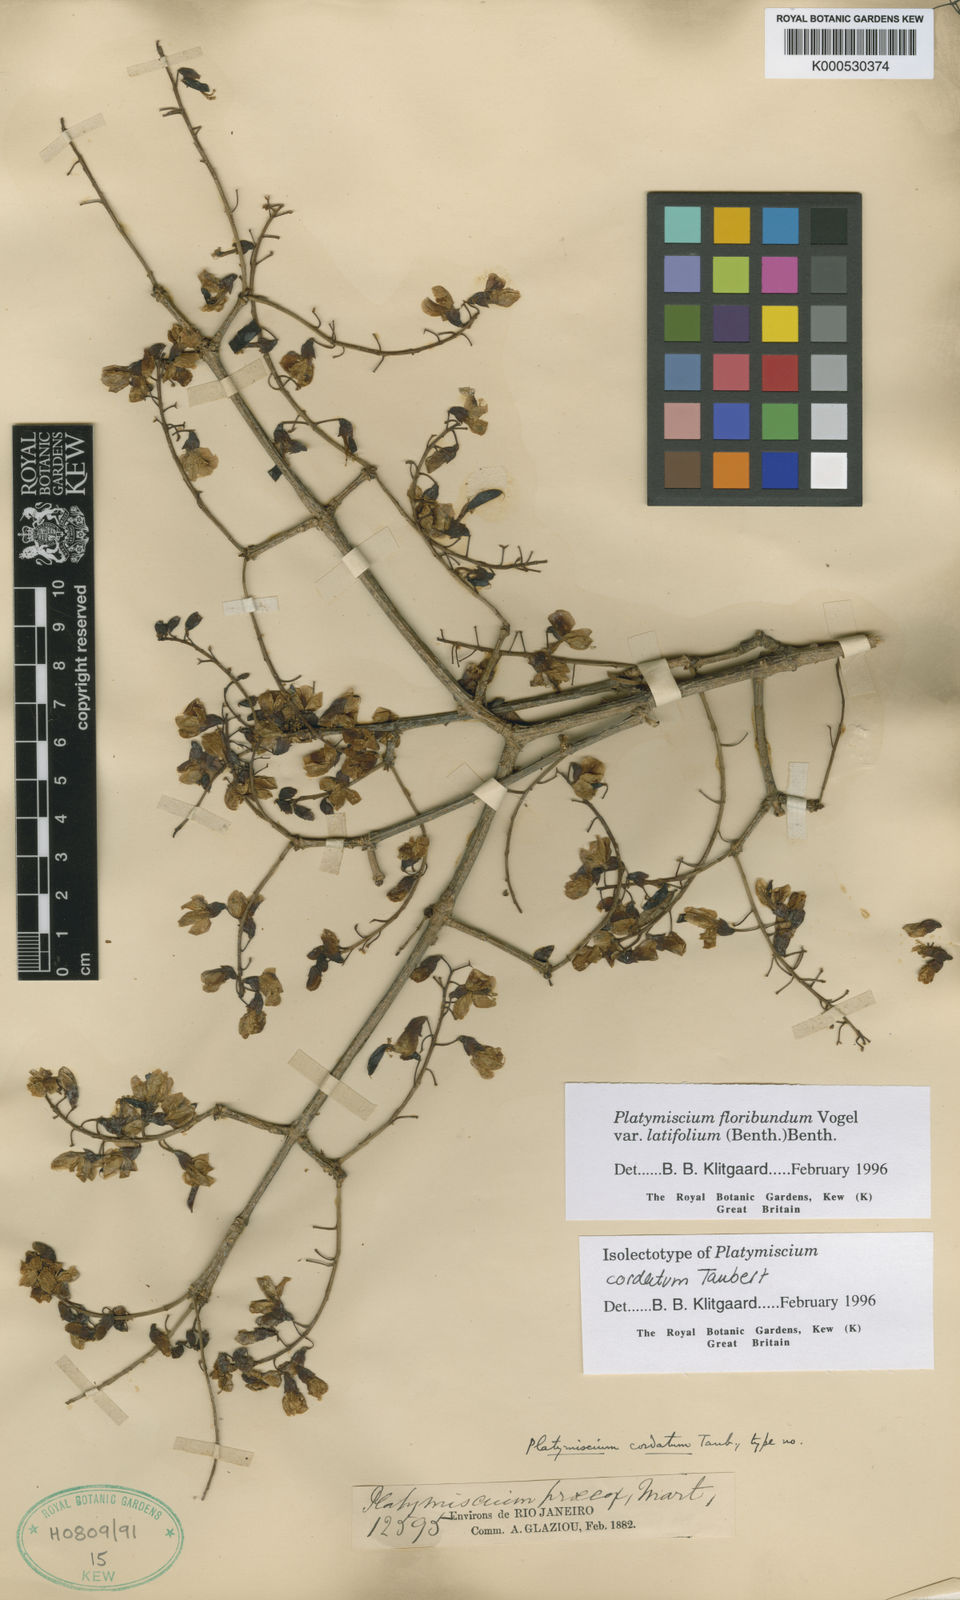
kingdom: Plantae
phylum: Tracheophyta
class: Magnoliopsida
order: Fabales
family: Fabaceae
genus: Platymiscium
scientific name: Platymiscium floribundum
